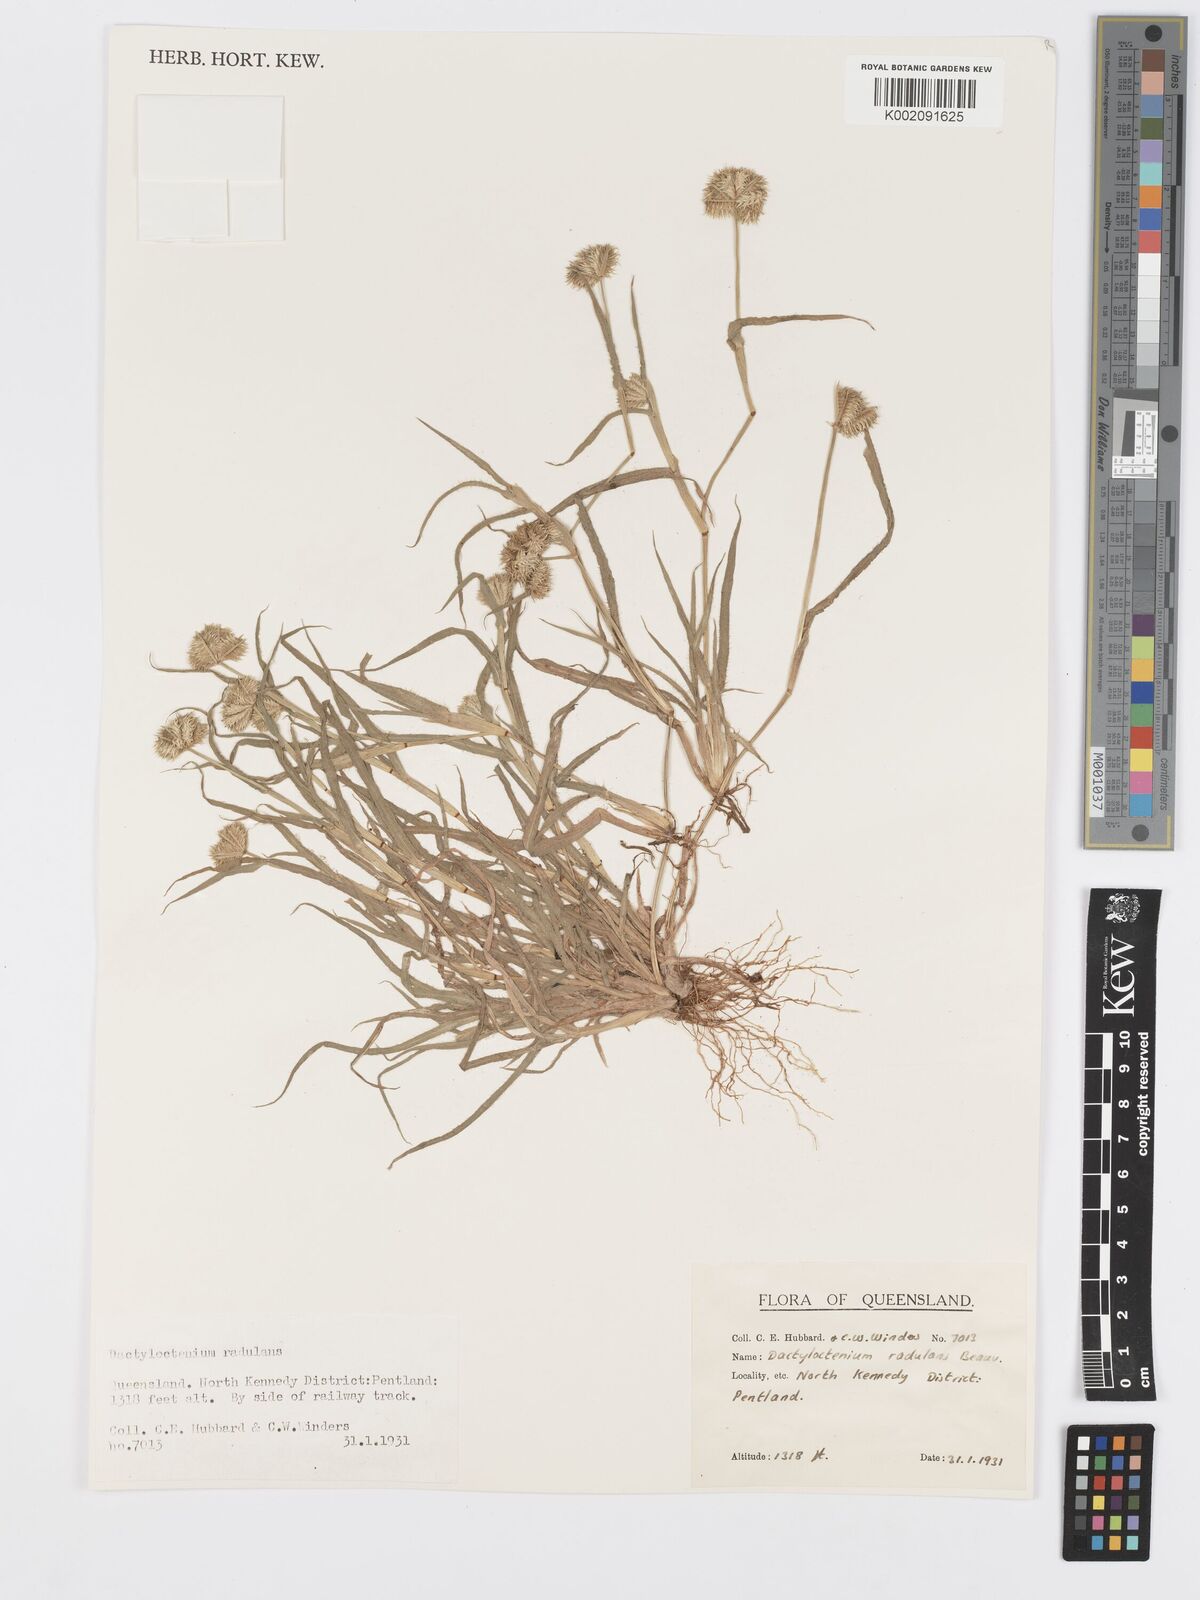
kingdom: Plantae
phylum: Tracheophyta
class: Liliopsida
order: Poales
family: Poaceae
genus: Dactyloctenium
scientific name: Dactyloctenium radulans
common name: Button-grass
